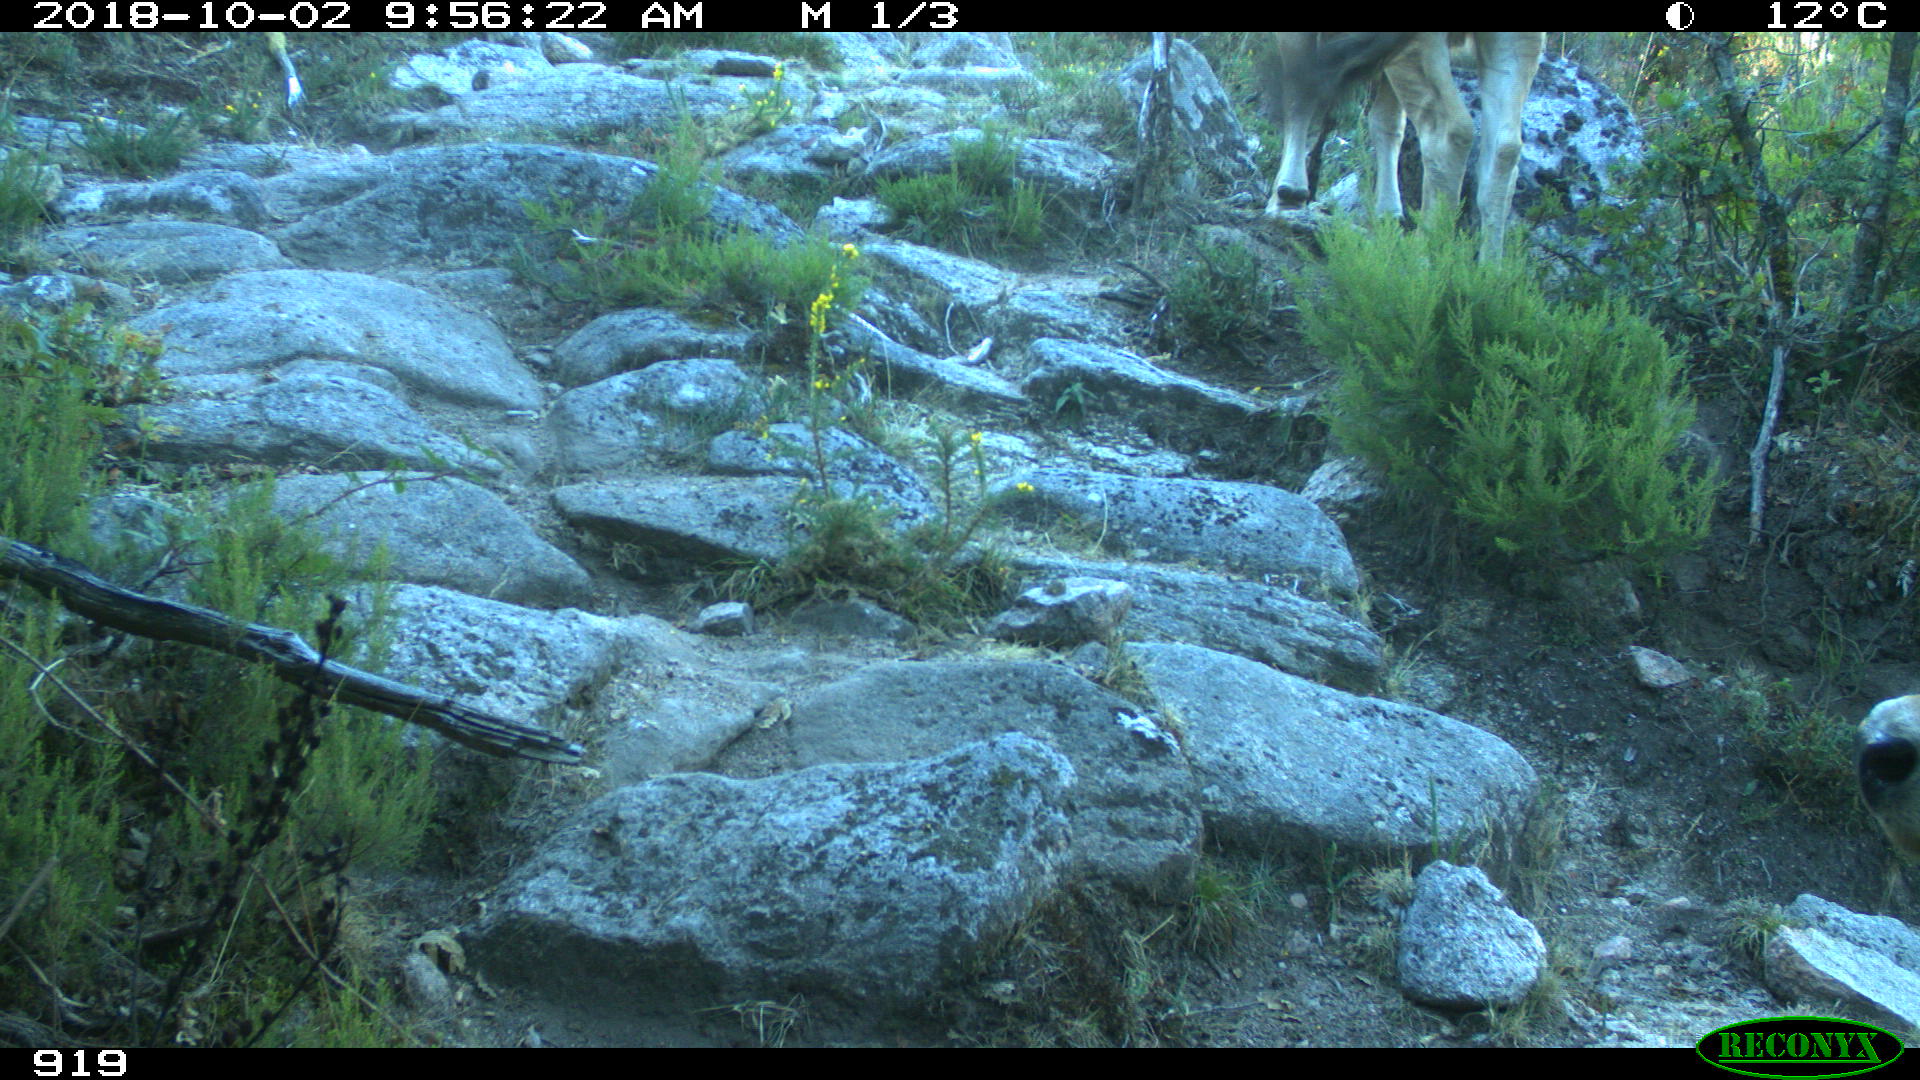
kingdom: Animalia
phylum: Chordata
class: Mammalia
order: Artiodactyla
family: Bovidae
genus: Bos
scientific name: Bos taurus
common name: Domesticated cattle
